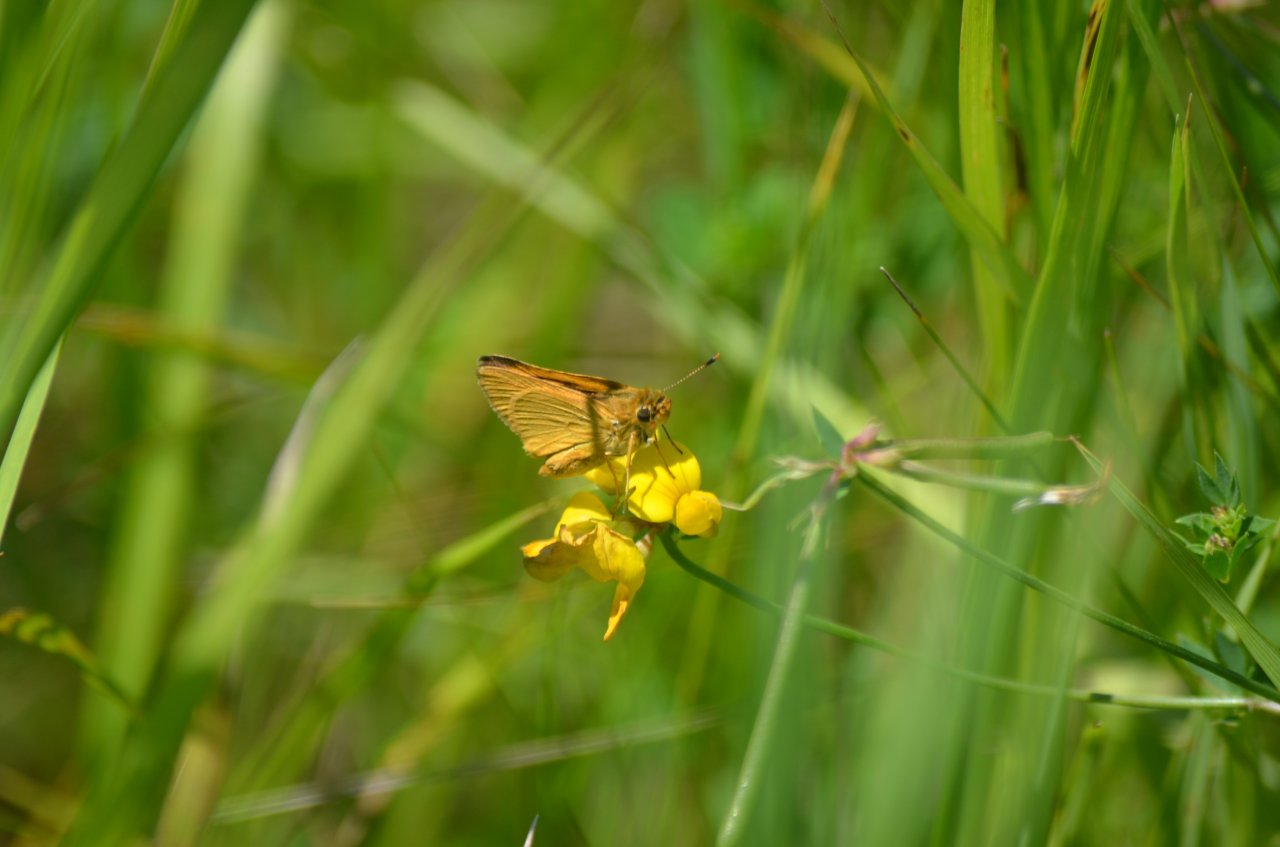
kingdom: Animalia
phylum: Arthropoda
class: Insecta
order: Lepidoptera
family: Hesperiidae
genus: Atrytone
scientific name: Atrytone delaware
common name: Delaware Skipper
